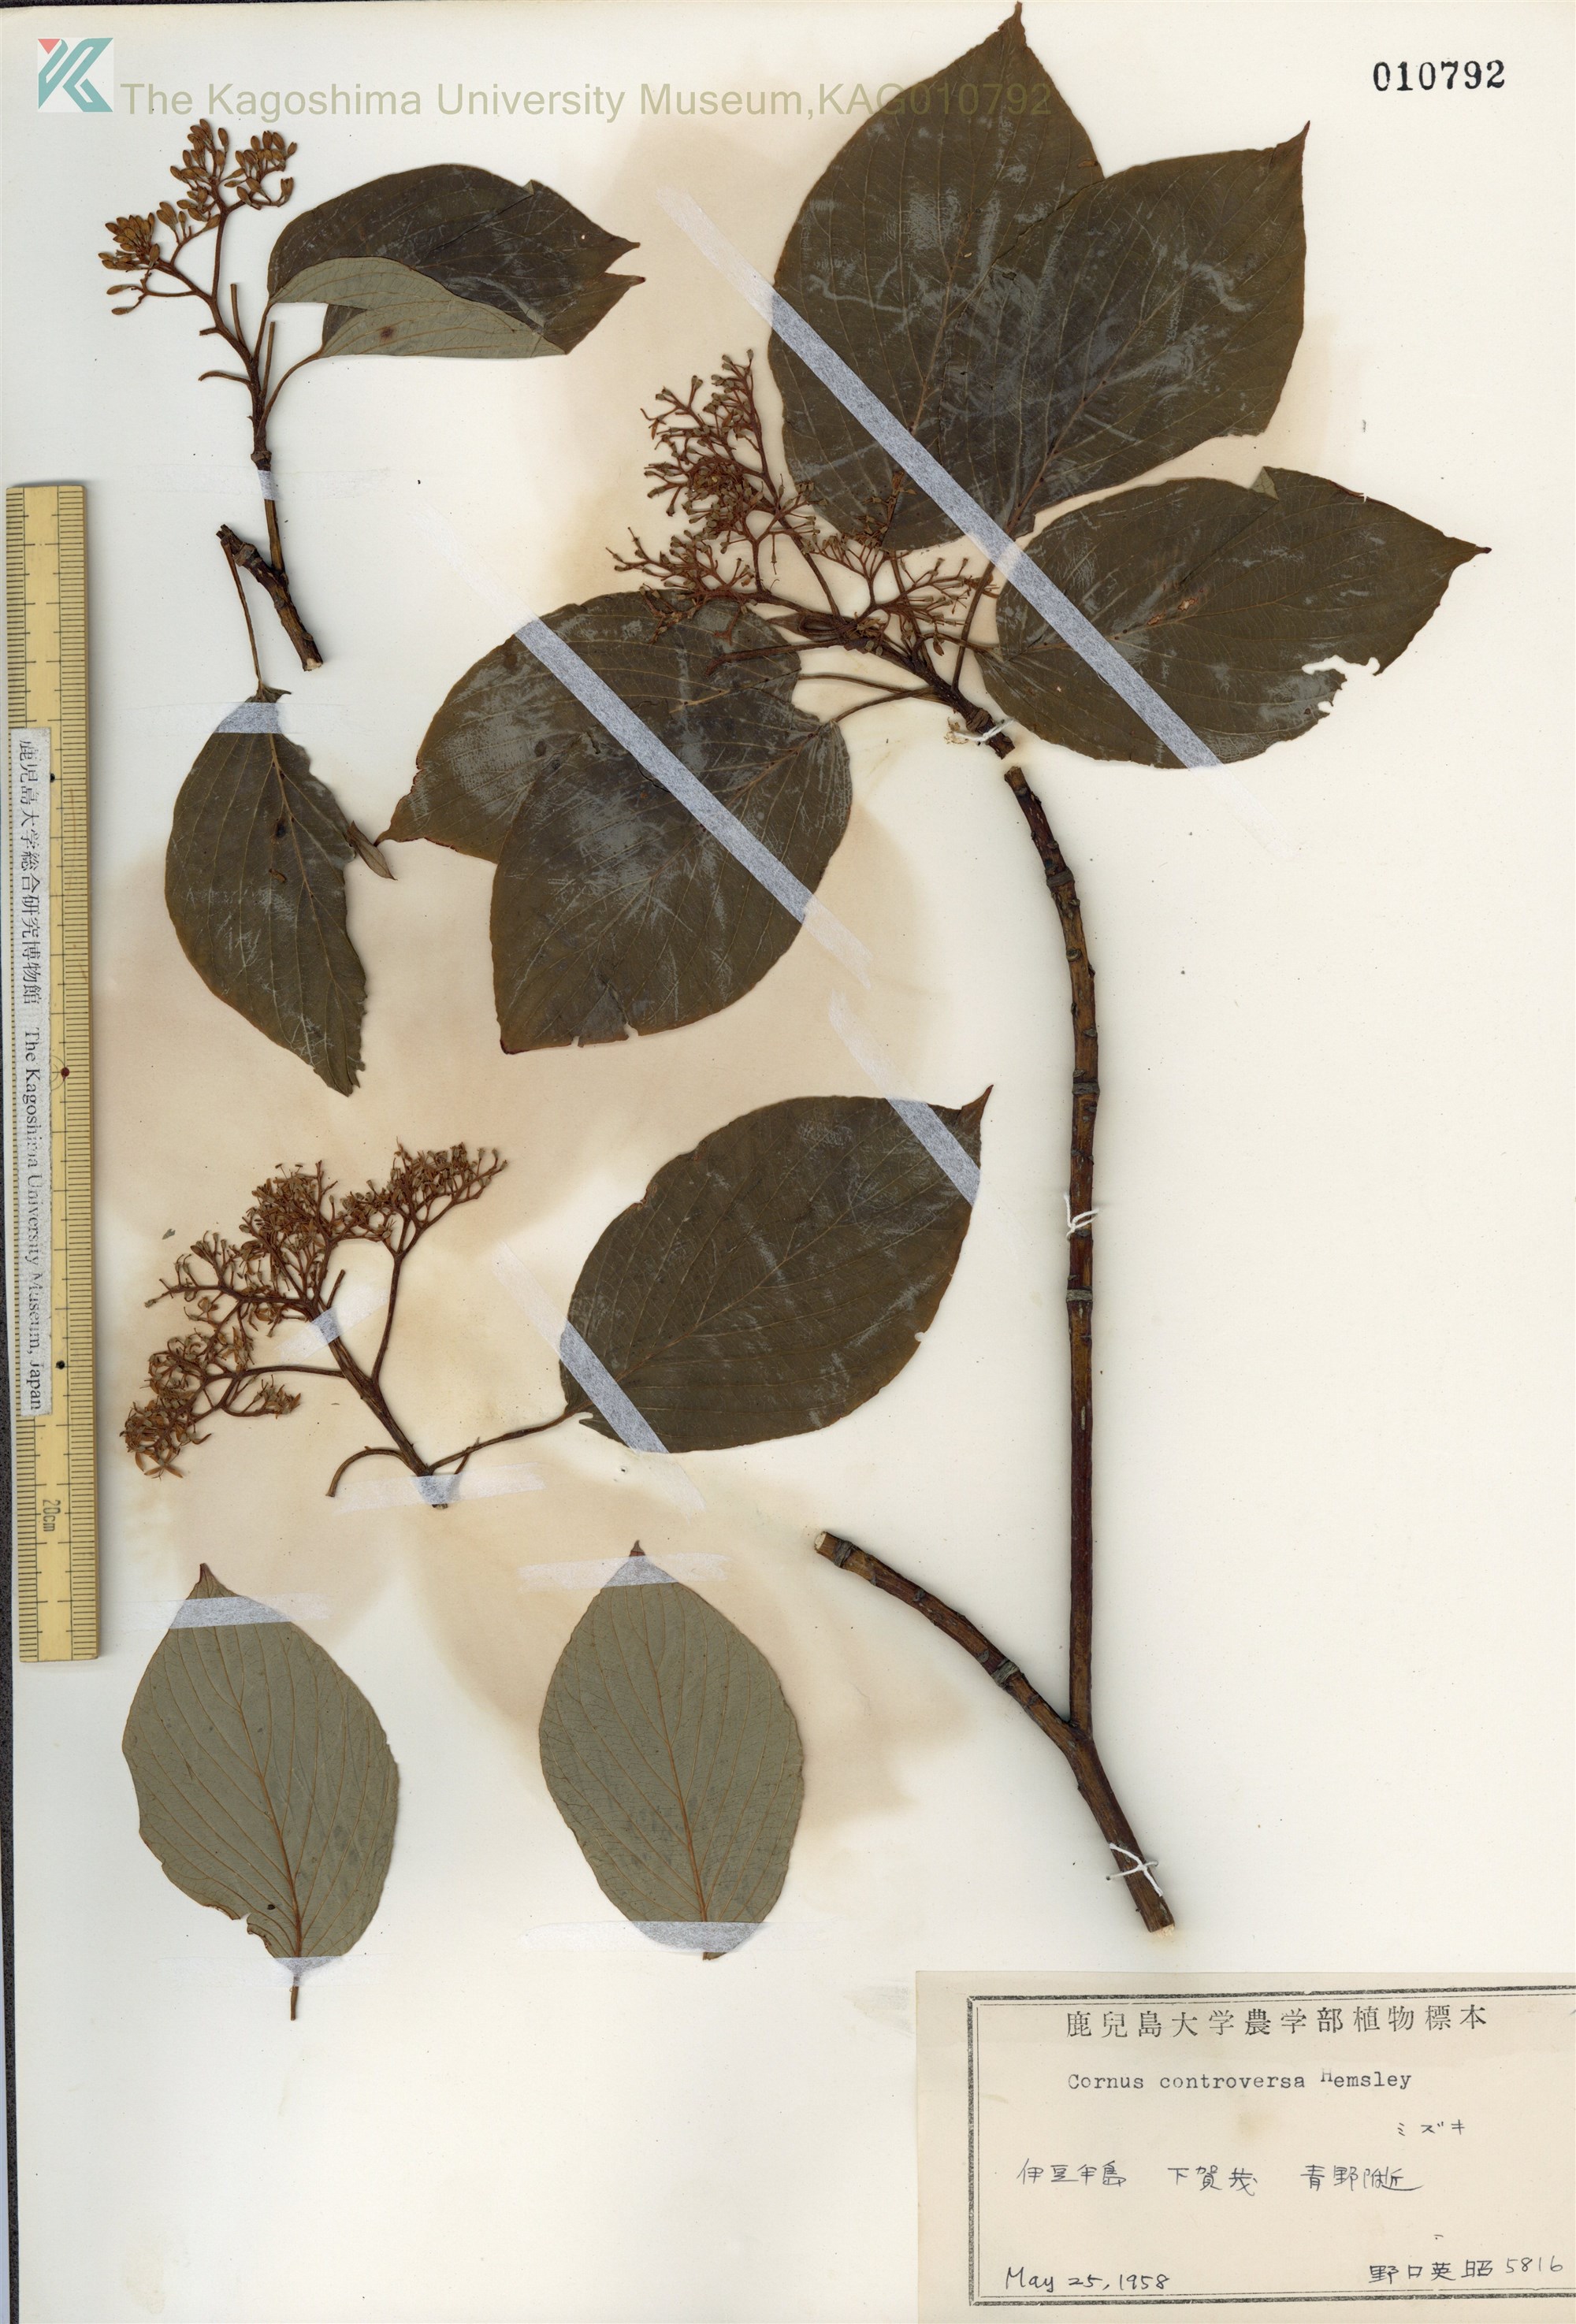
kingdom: Plantae
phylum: Tracheophyta
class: Magnoliopsida
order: Cornales
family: Cornaceae
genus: Cornus
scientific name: Cornus controversa
